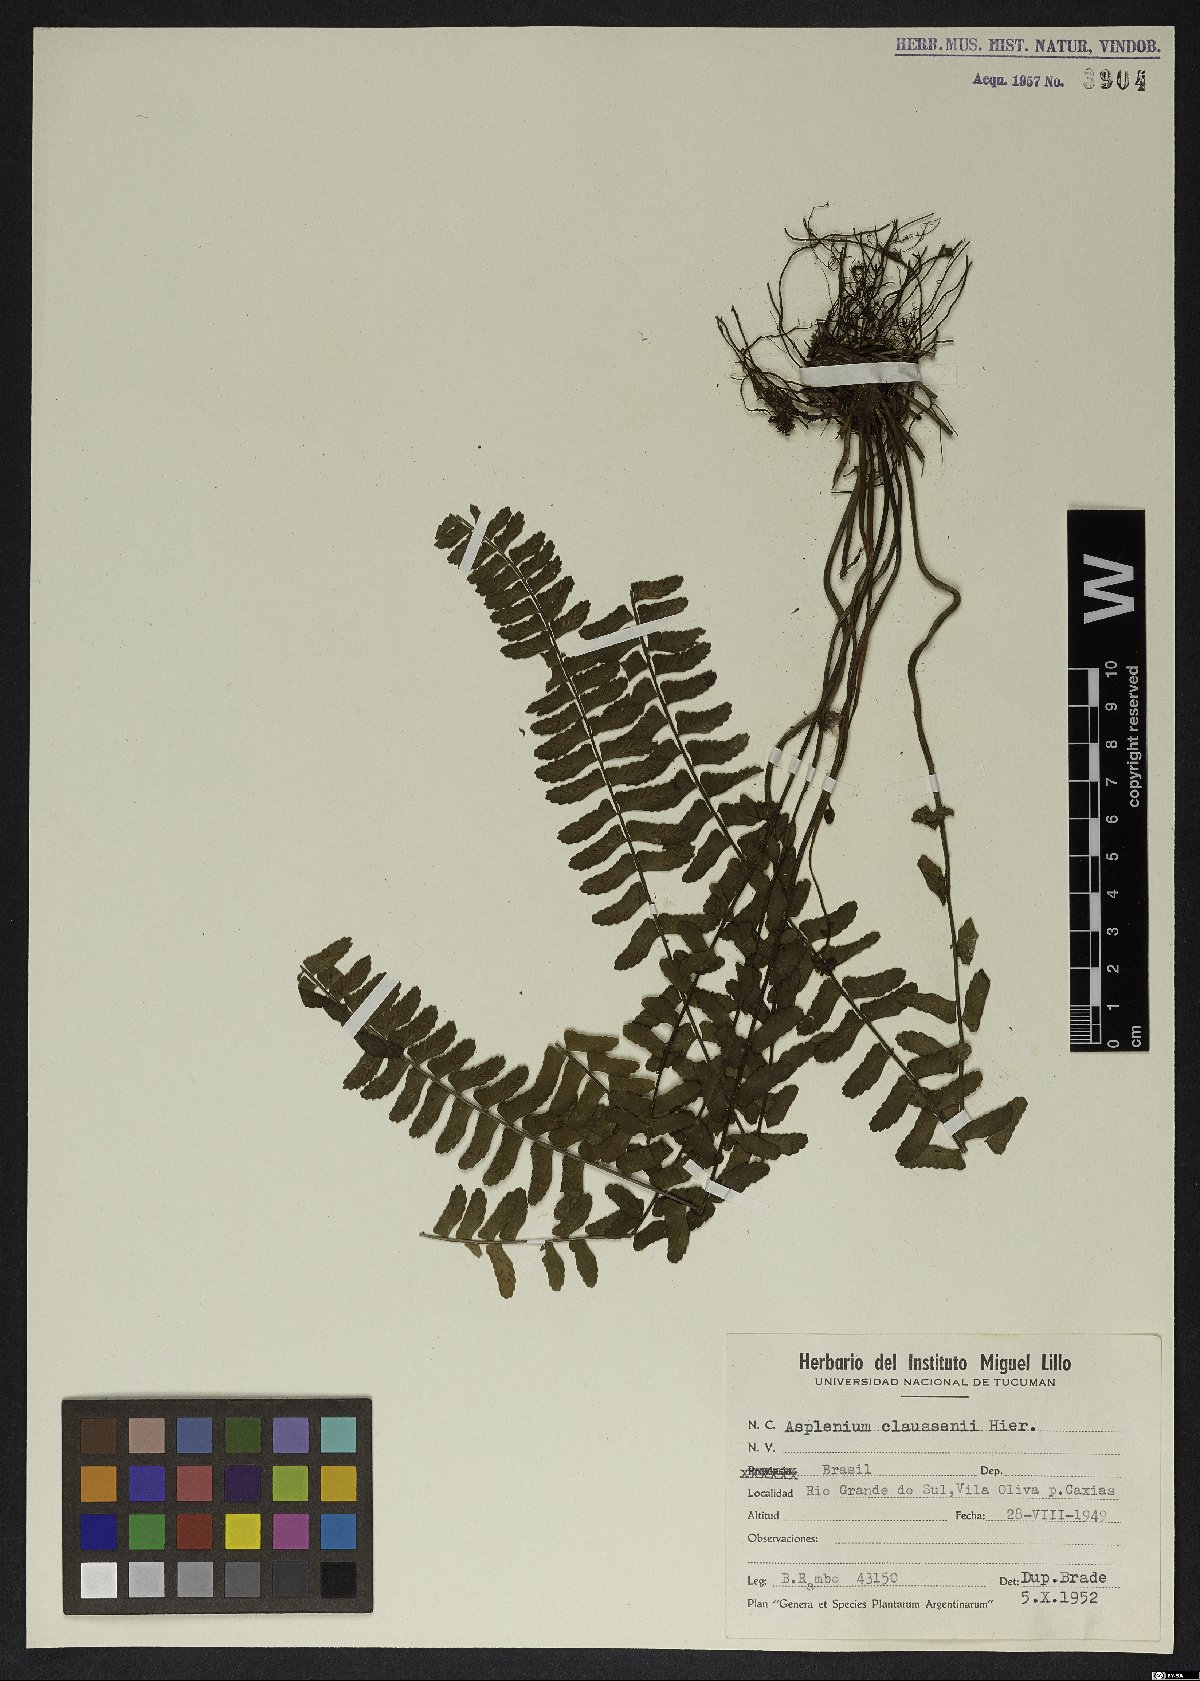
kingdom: Plantae
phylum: Tracheophyta
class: Polypodiopsida
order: Polypodiales
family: Aspleniaceae
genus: Asplenium
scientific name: Asplenium claussenii
